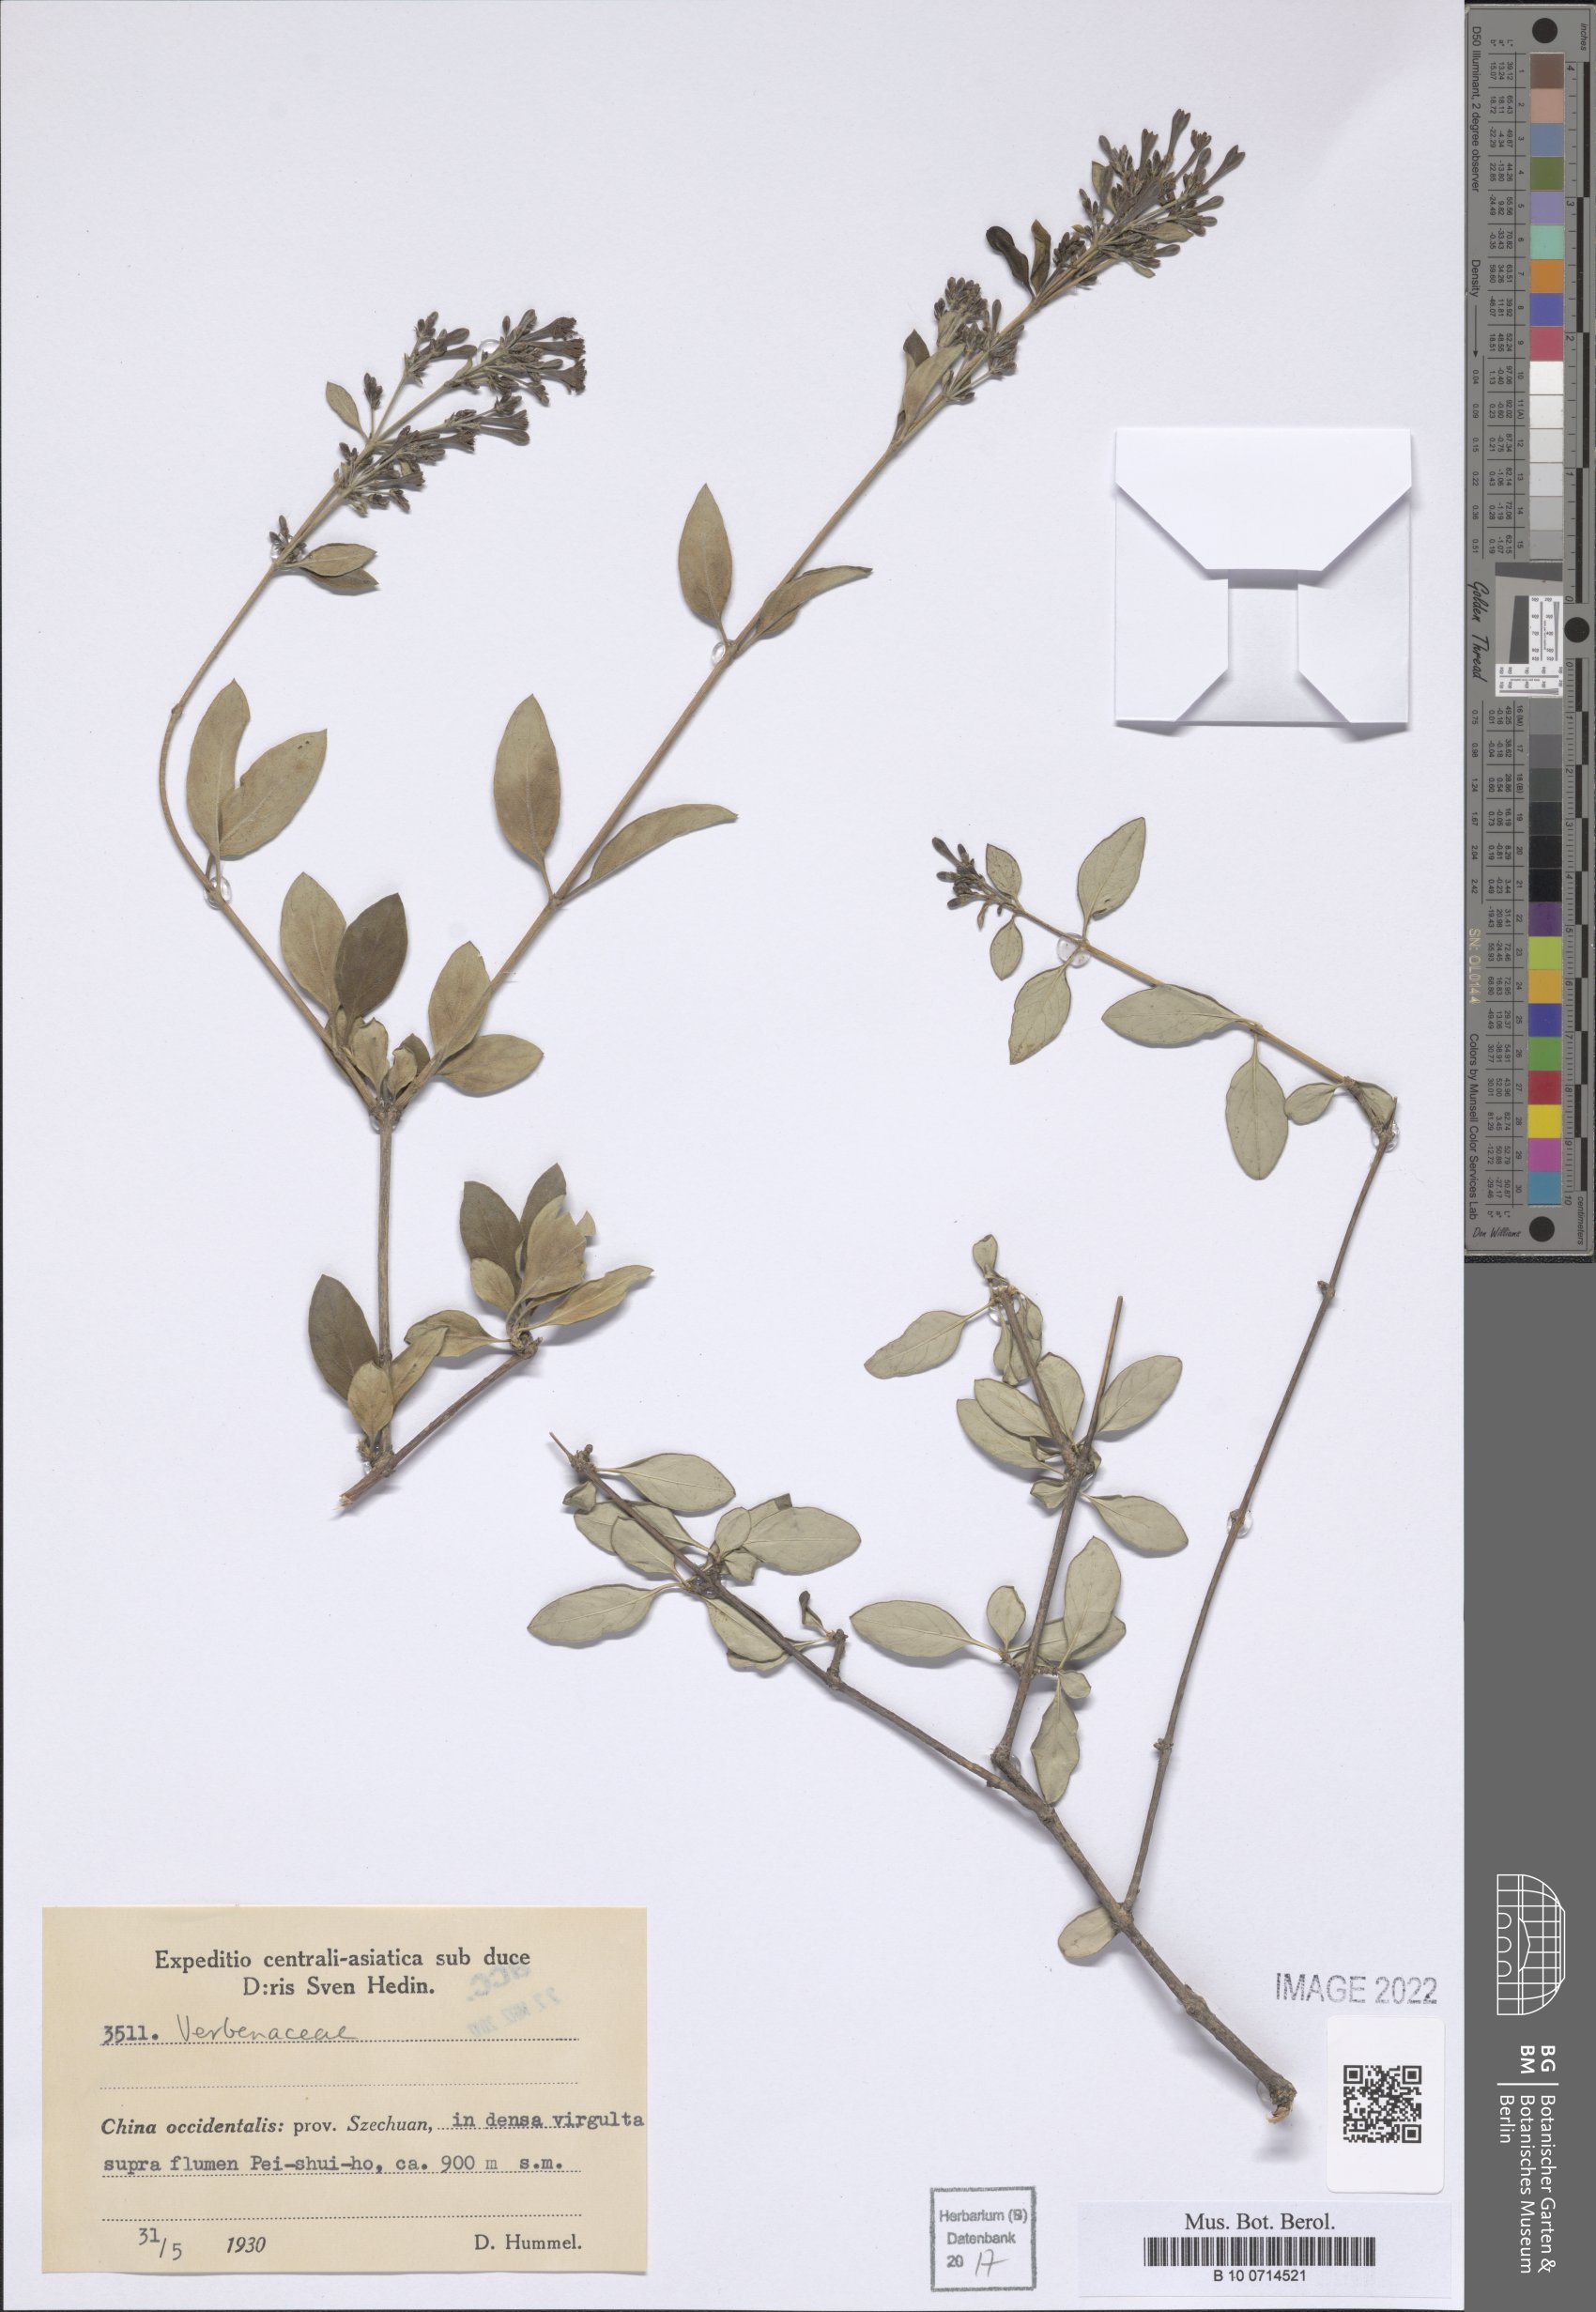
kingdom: Plantae
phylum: Tracheophyta
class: Magnoliopsida
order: Lamiales
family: Verbenaceae
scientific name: Verbenaceae
